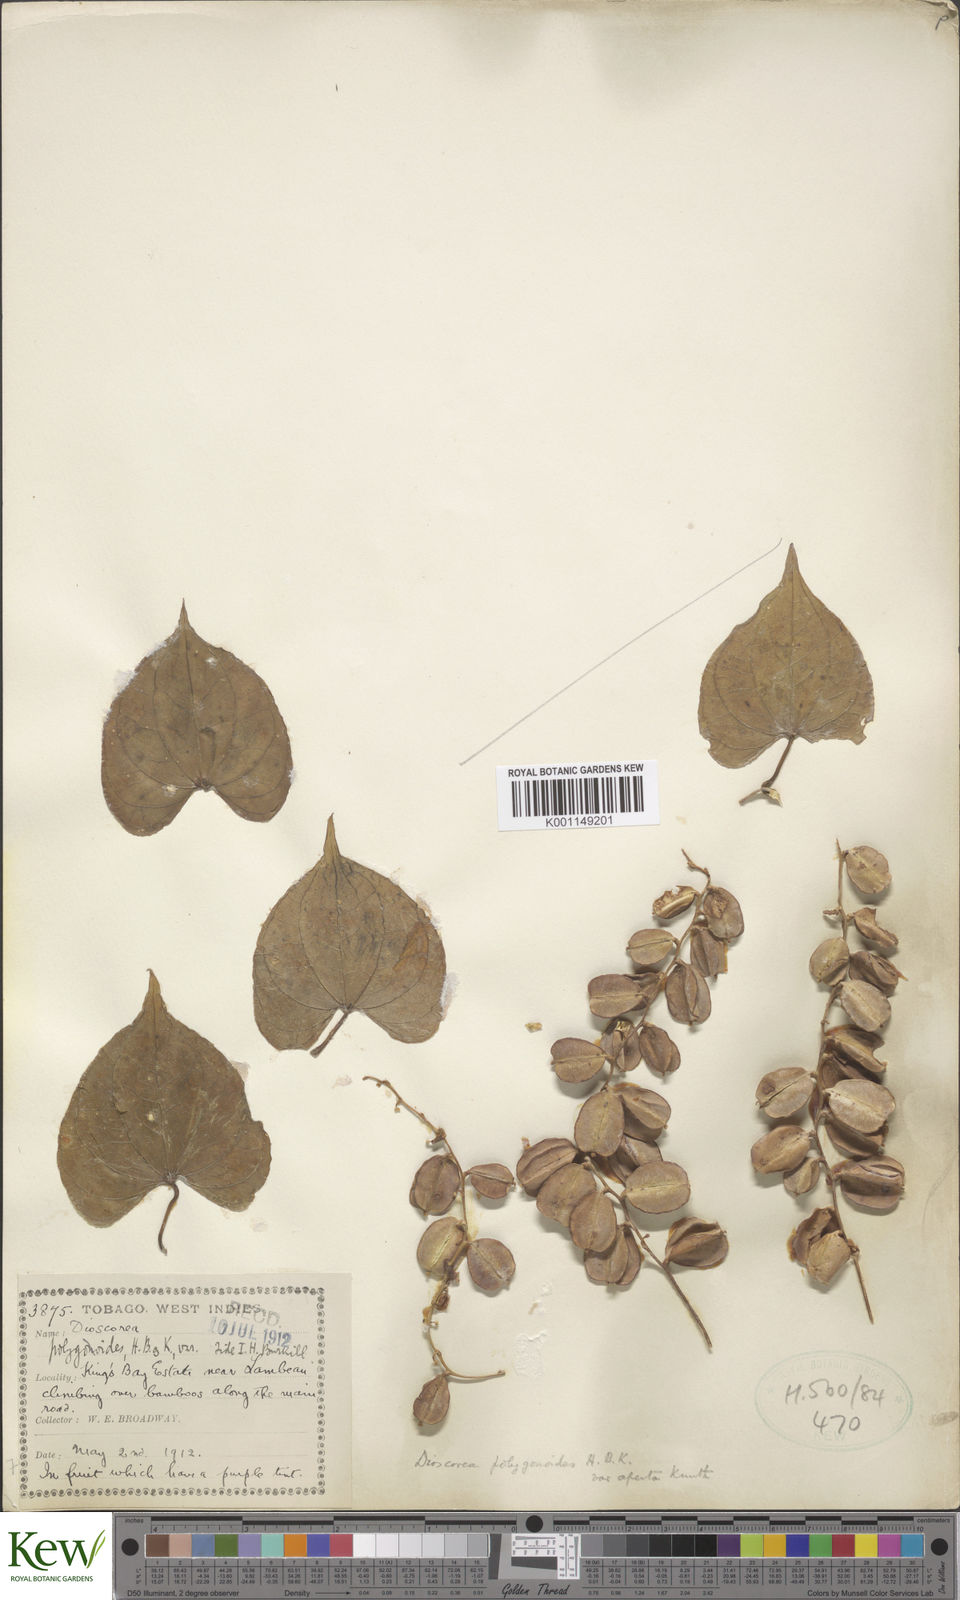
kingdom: Plantae
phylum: Tracheophyta
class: Liliopsida
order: Dioscoreales
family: Dioscoreaceae
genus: Dioscorea
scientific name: Dioscorea polygonoides
